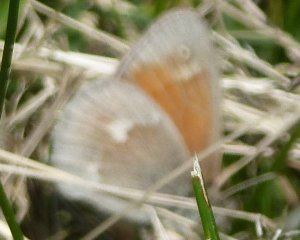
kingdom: Animalia
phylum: Arthropoda
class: Insecta
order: Lepidoptera
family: Nymphalidae
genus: Coenonympha
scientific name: Coenonympha tullia
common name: Large Heath
